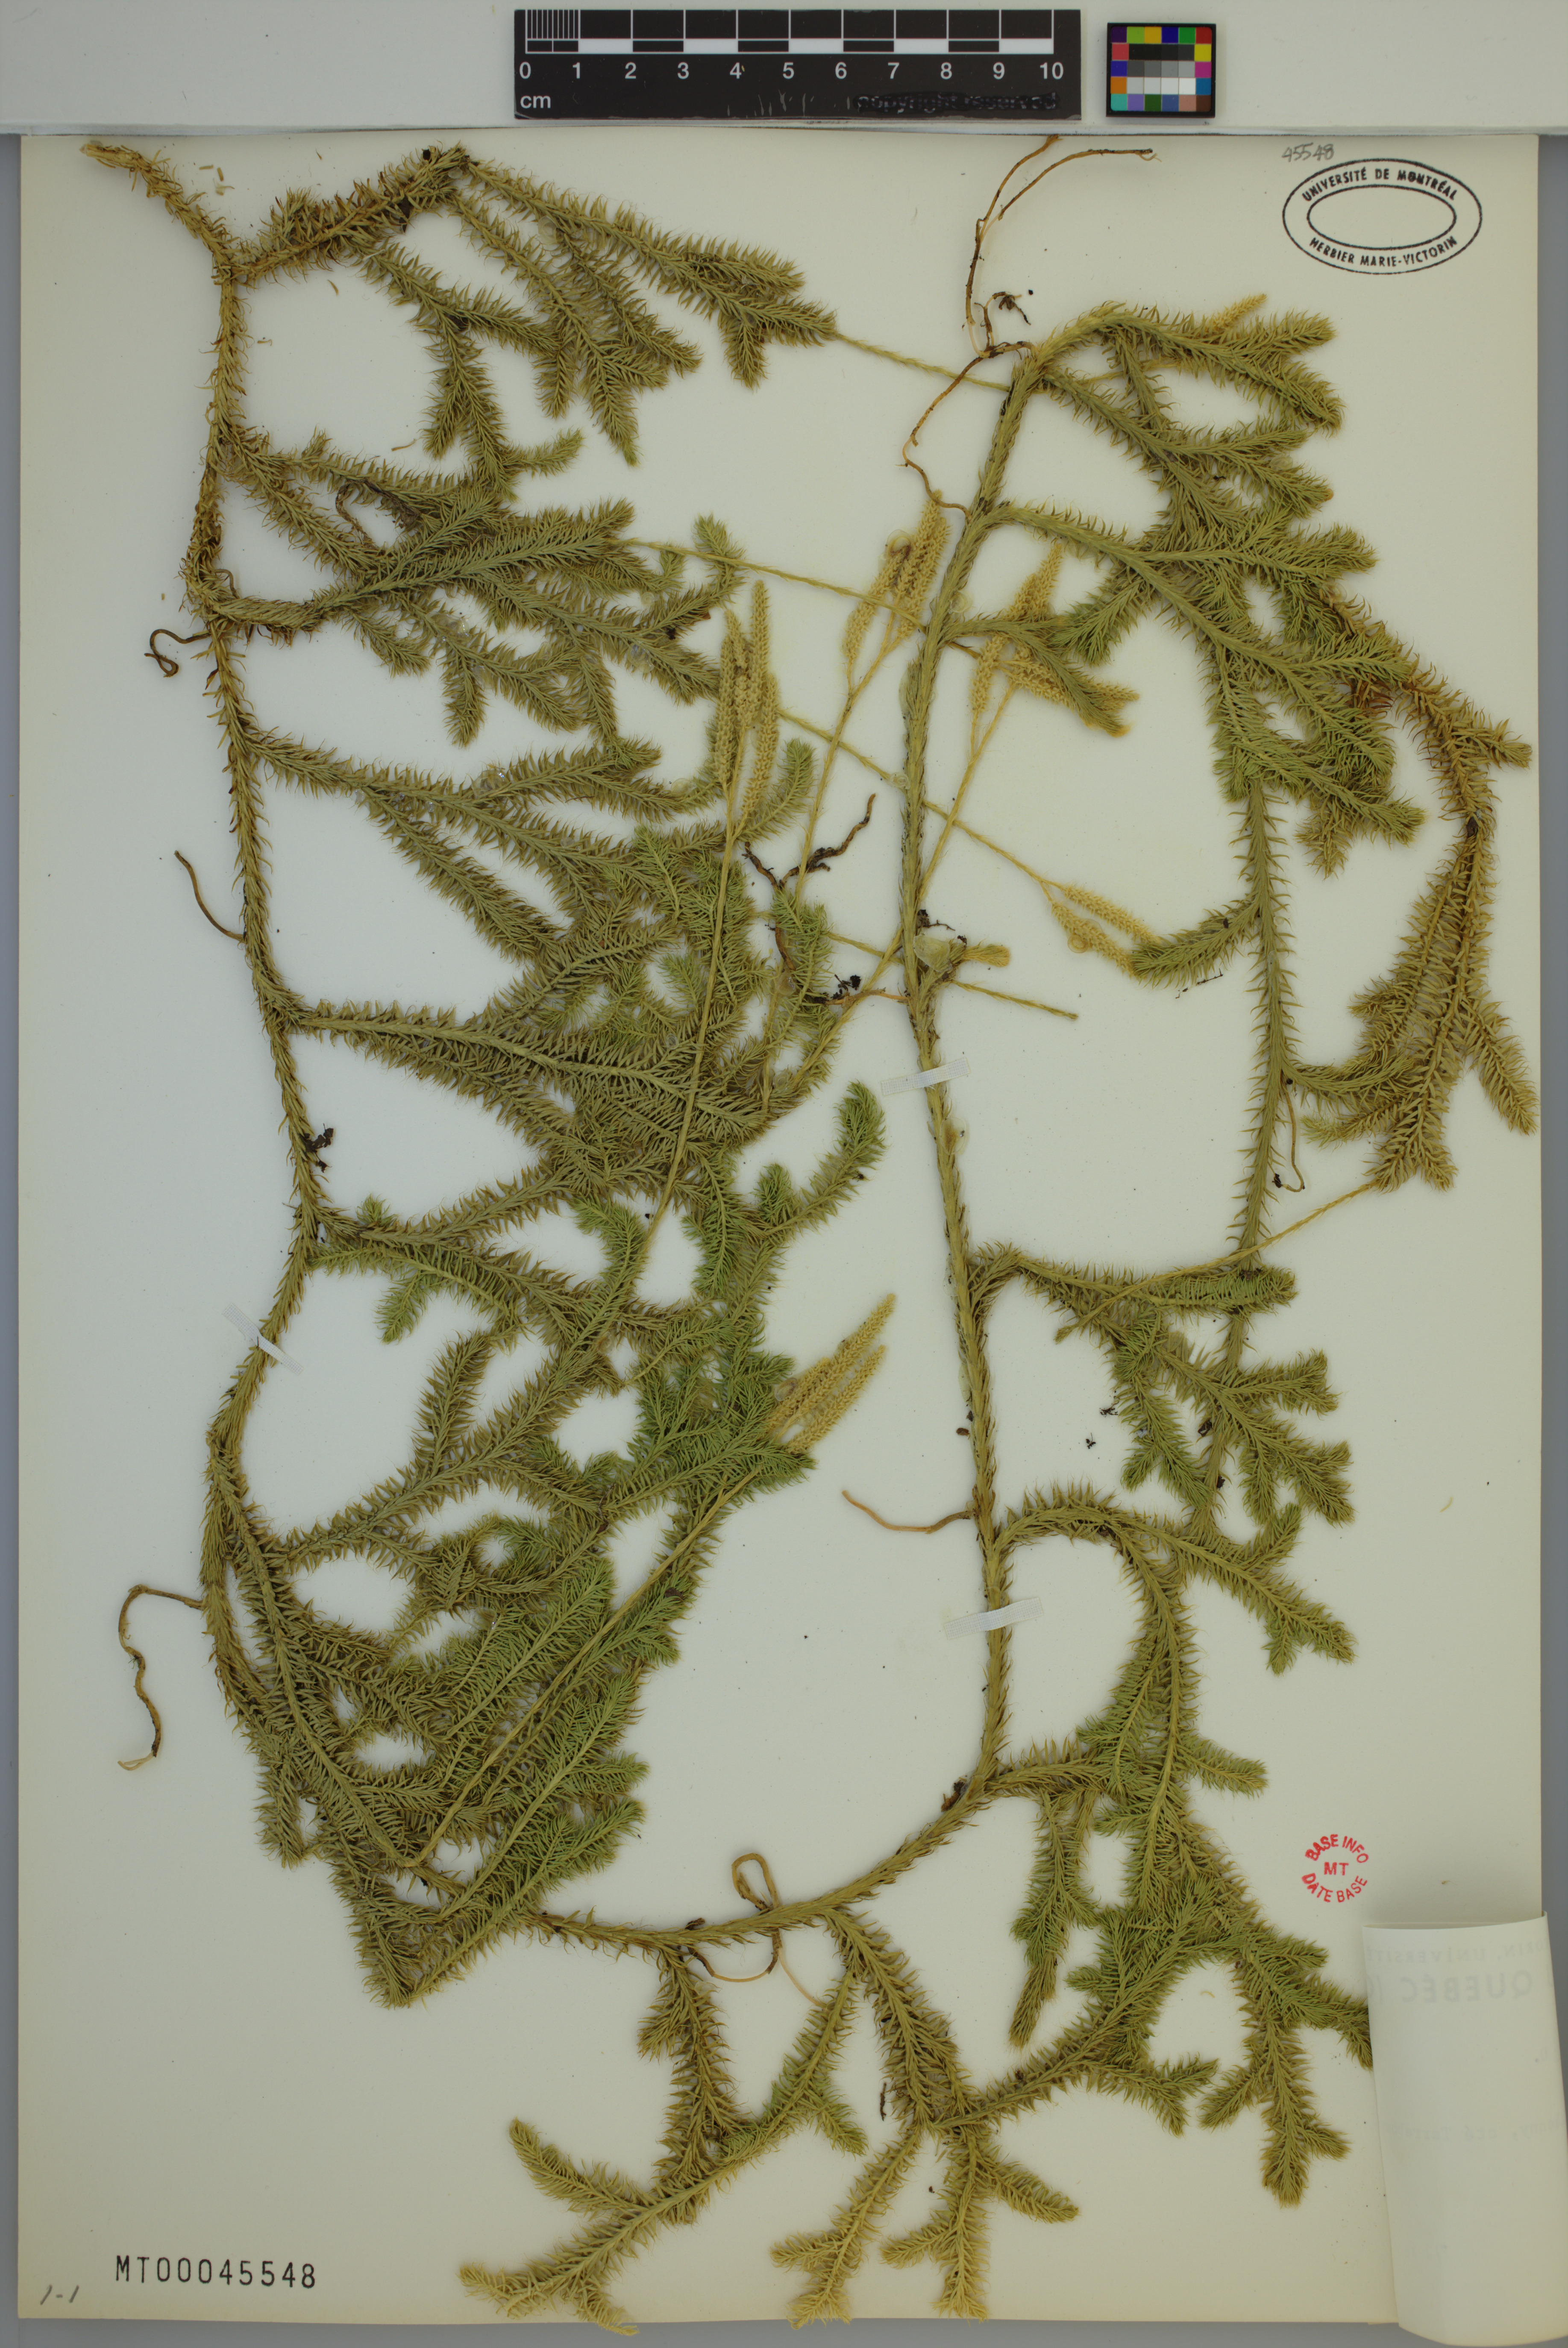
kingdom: Plantae
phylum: Tracheophyta
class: Lycopodiopsida
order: Lycopodiales
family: Lycopodiaceae
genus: Lycopodium
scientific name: Lycopodium clavatum
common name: Stag's-horn clubmoss
